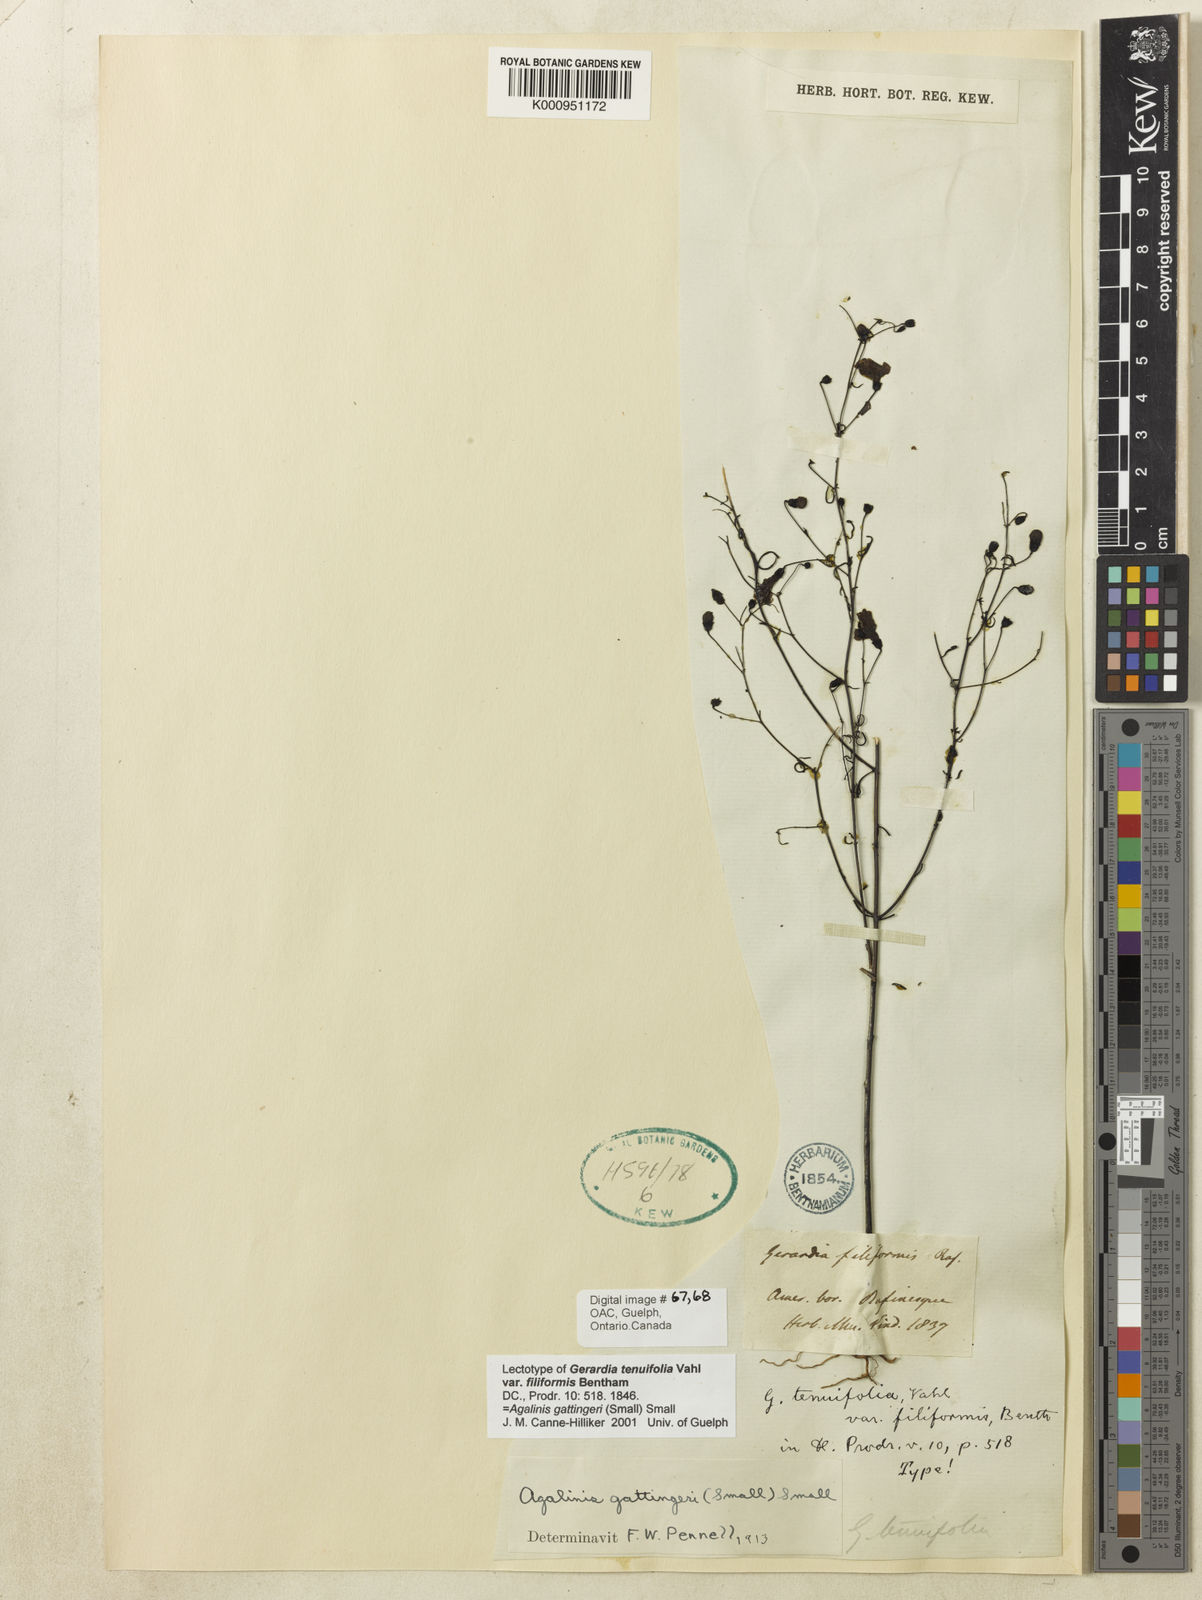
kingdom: Plantae
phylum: Tracheophyta
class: Magnoliopsida
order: Lamiales
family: Orobanchaceae
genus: Agalinis
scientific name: Agalinis
